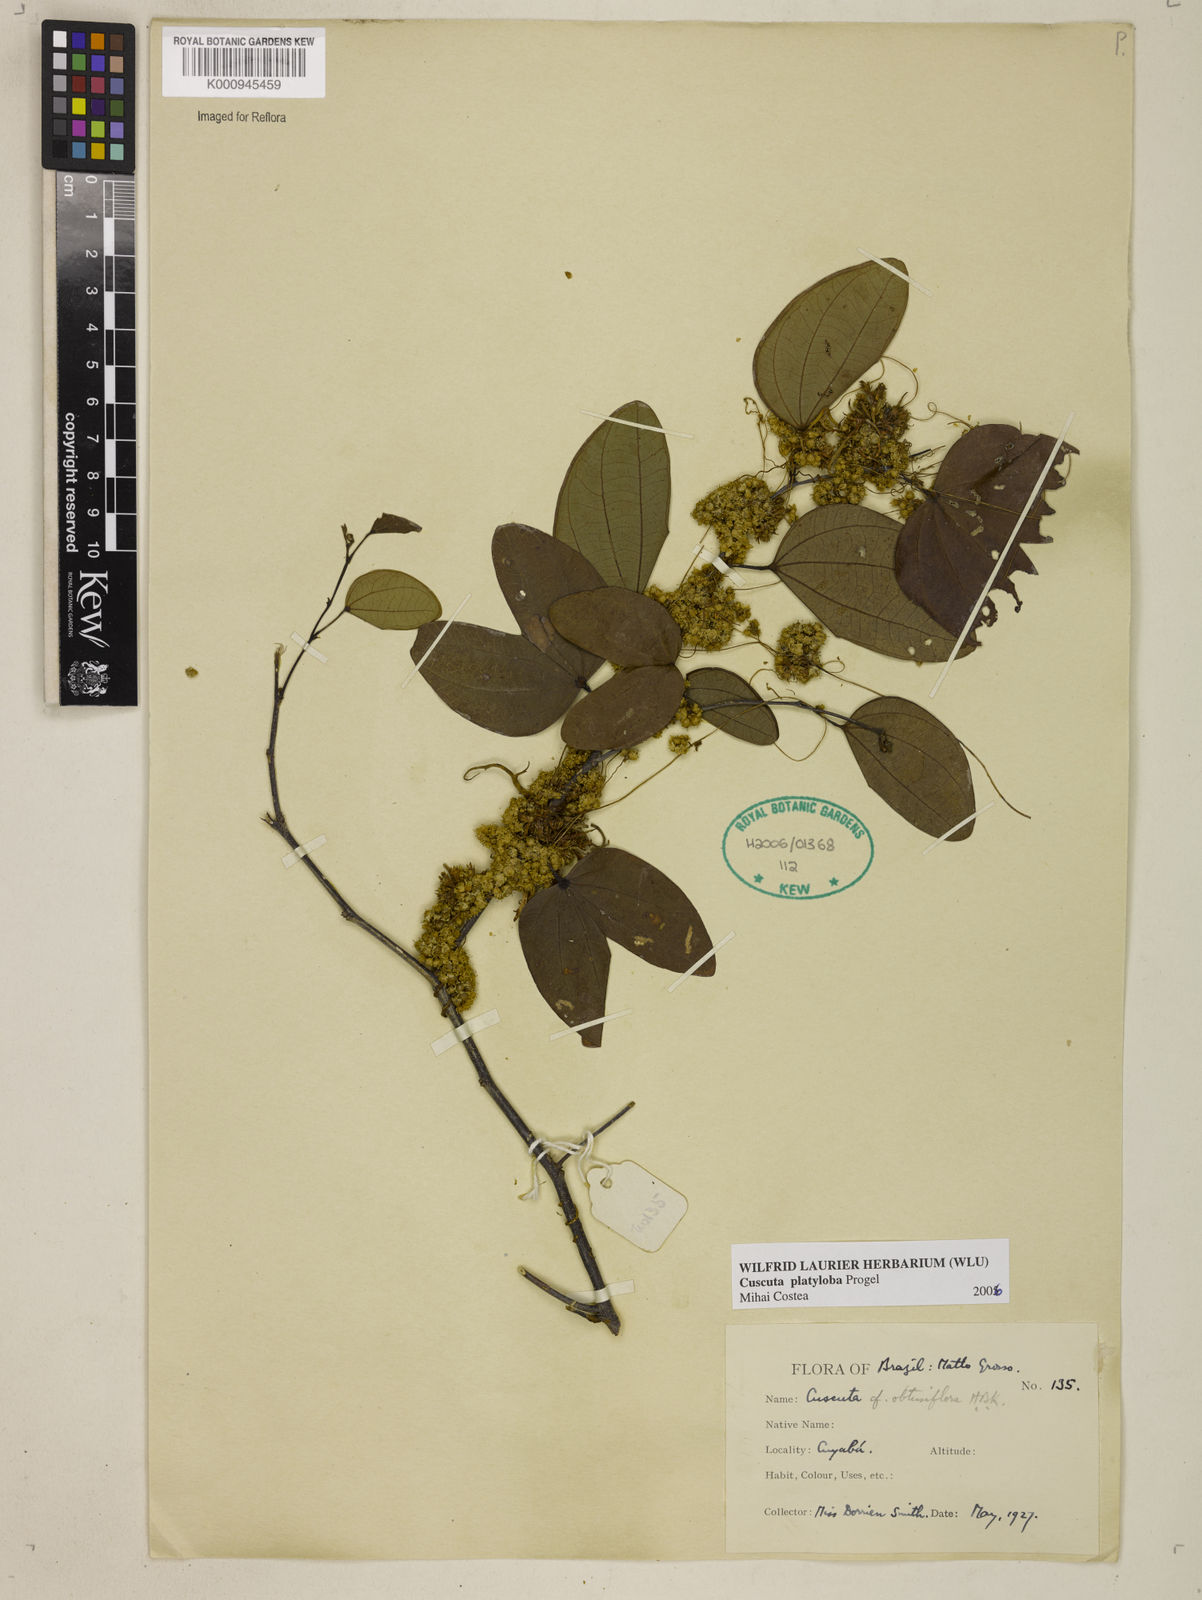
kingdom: Plantae
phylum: Tracheophyta
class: Magnoliopsida
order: Solanales
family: Convolvulaceae
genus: Cuscuta
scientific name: Cuscuta platyloba
